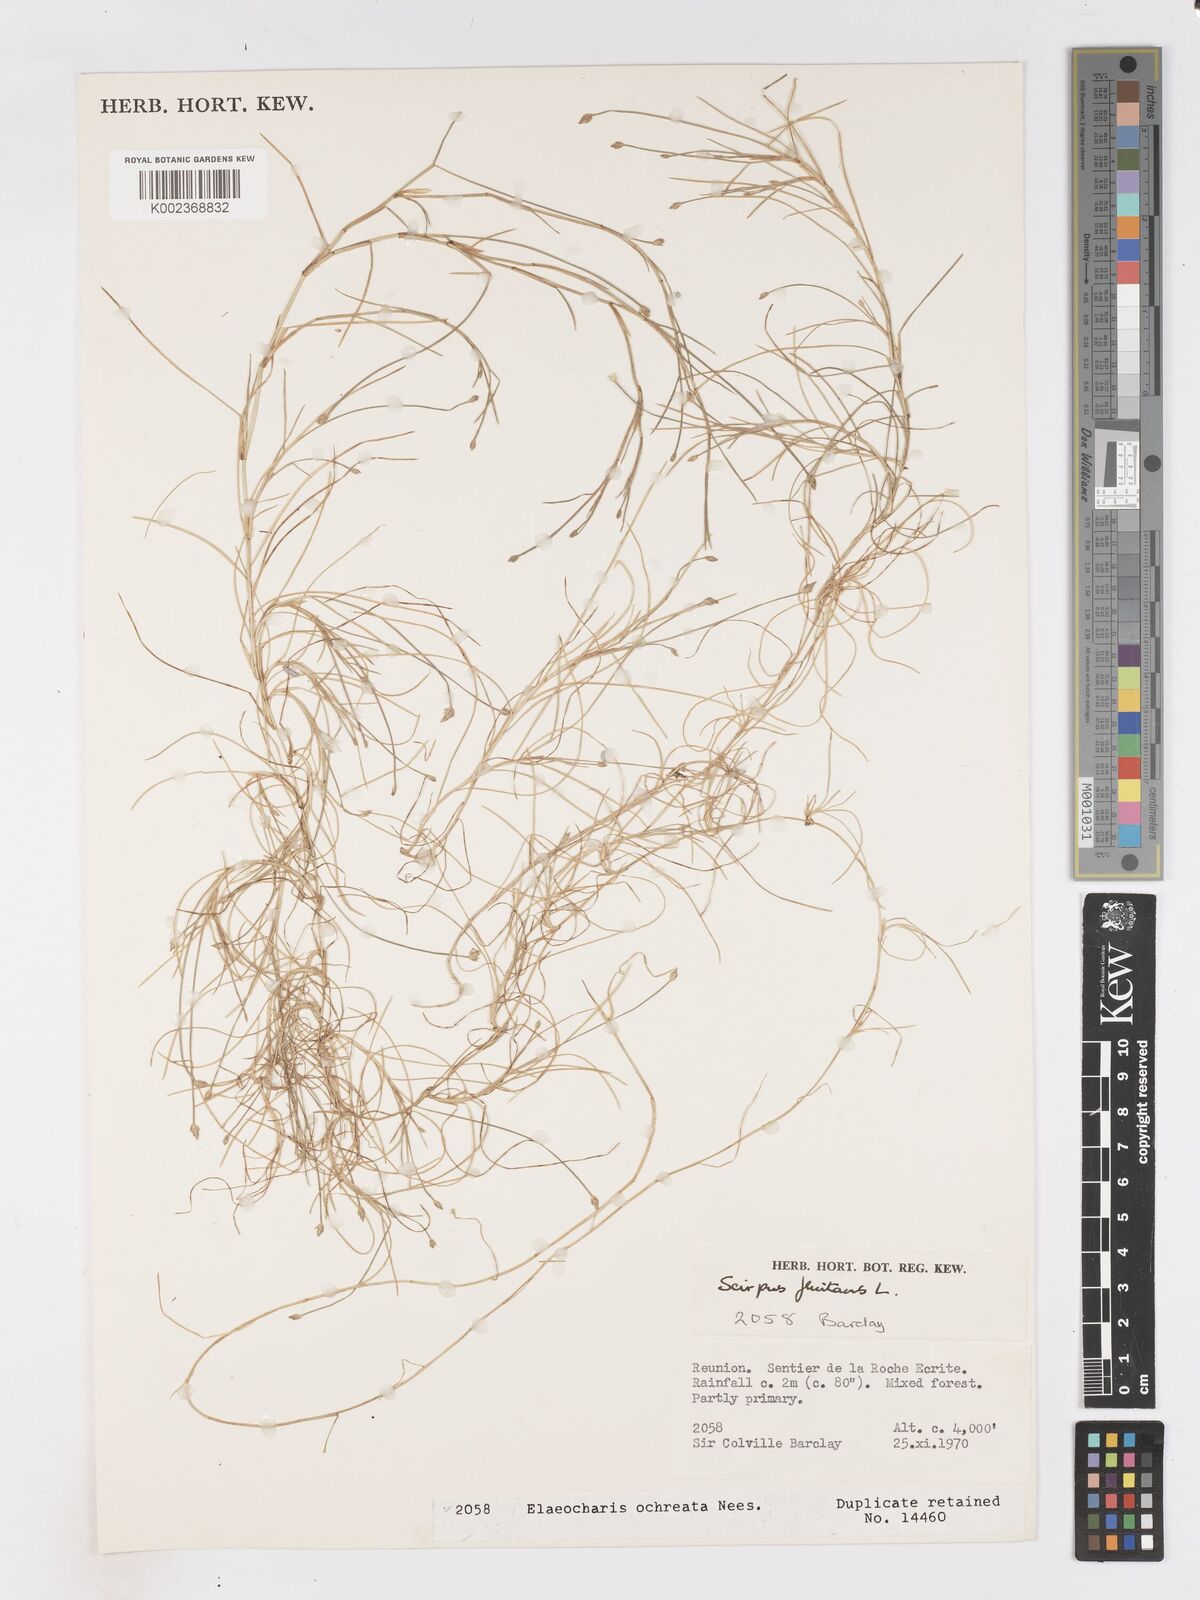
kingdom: Plantae
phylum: Tracheophyta
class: Liliopsida
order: Poales
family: Cyperaceae
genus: Isolepis
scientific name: Isolepis fluitans
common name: Floating club-rush
